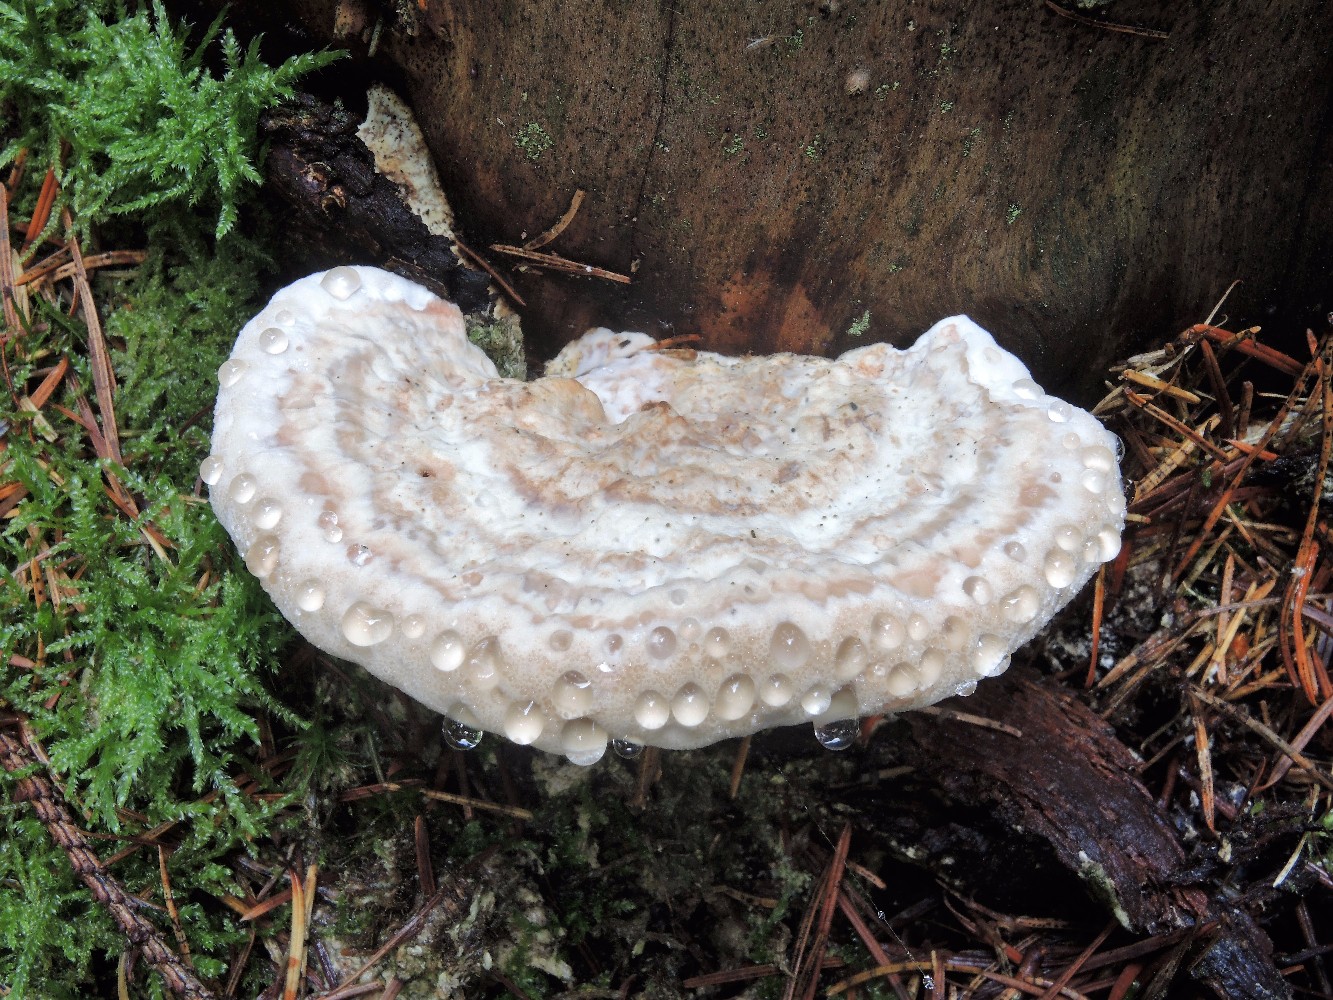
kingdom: Fungi
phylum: Basidiomycota
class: Agaricomycetes
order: Polyporales
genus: Calcipostia
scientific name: Calcipostia guttulata
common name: dråbe-kødporesvamp
